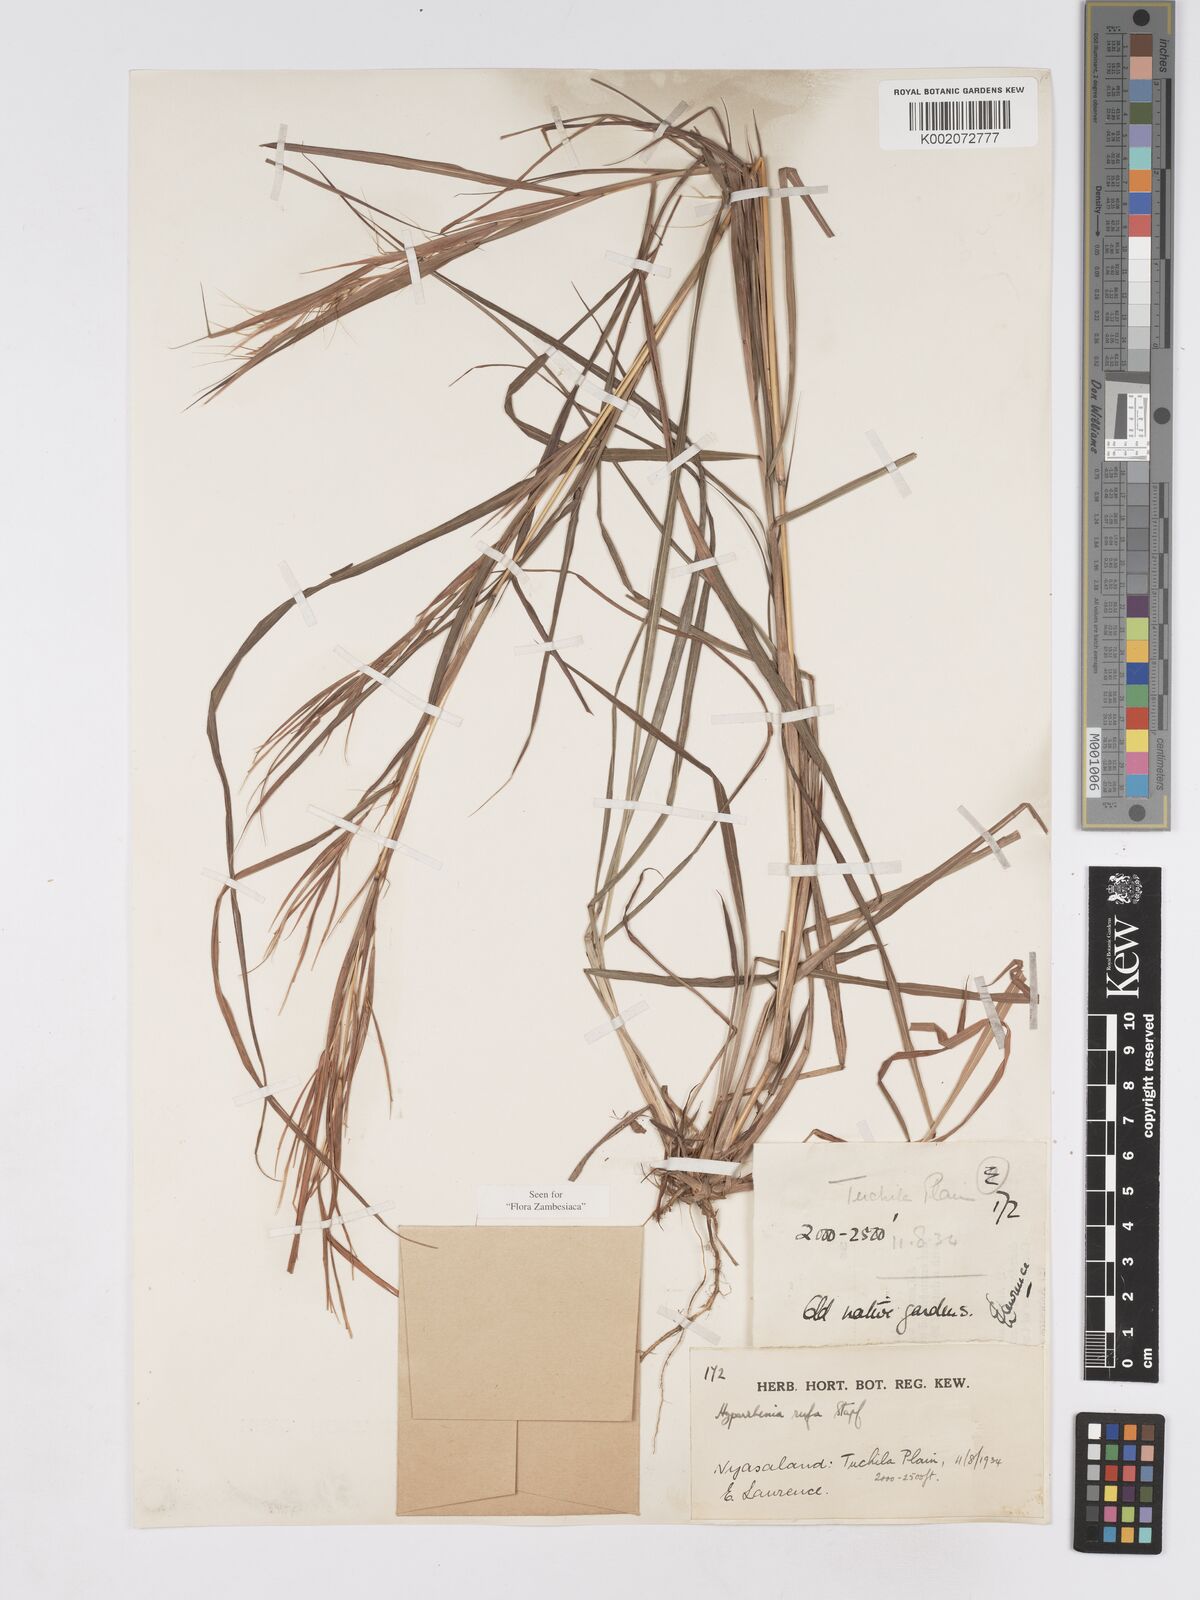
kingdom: Plantae
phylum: Tracheophyta
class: Liliopsida
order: Poales
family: Poaceae
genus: Hyparrhenia
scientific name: Hyparrhenia rufa
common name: Jaraguagrass
